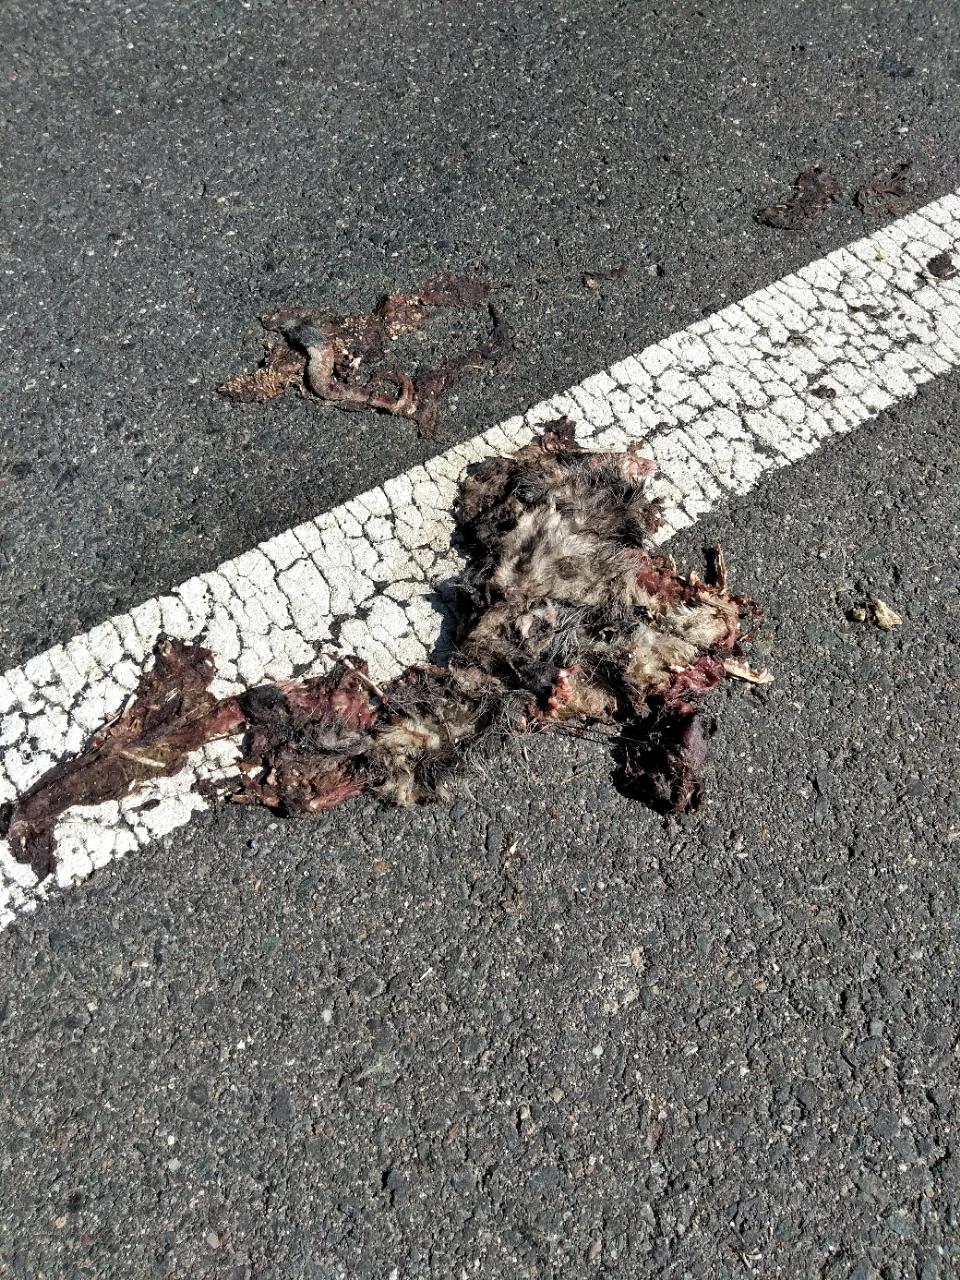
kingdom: Animalia
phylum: Chordata
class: Mammalia
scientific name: Mammalia
